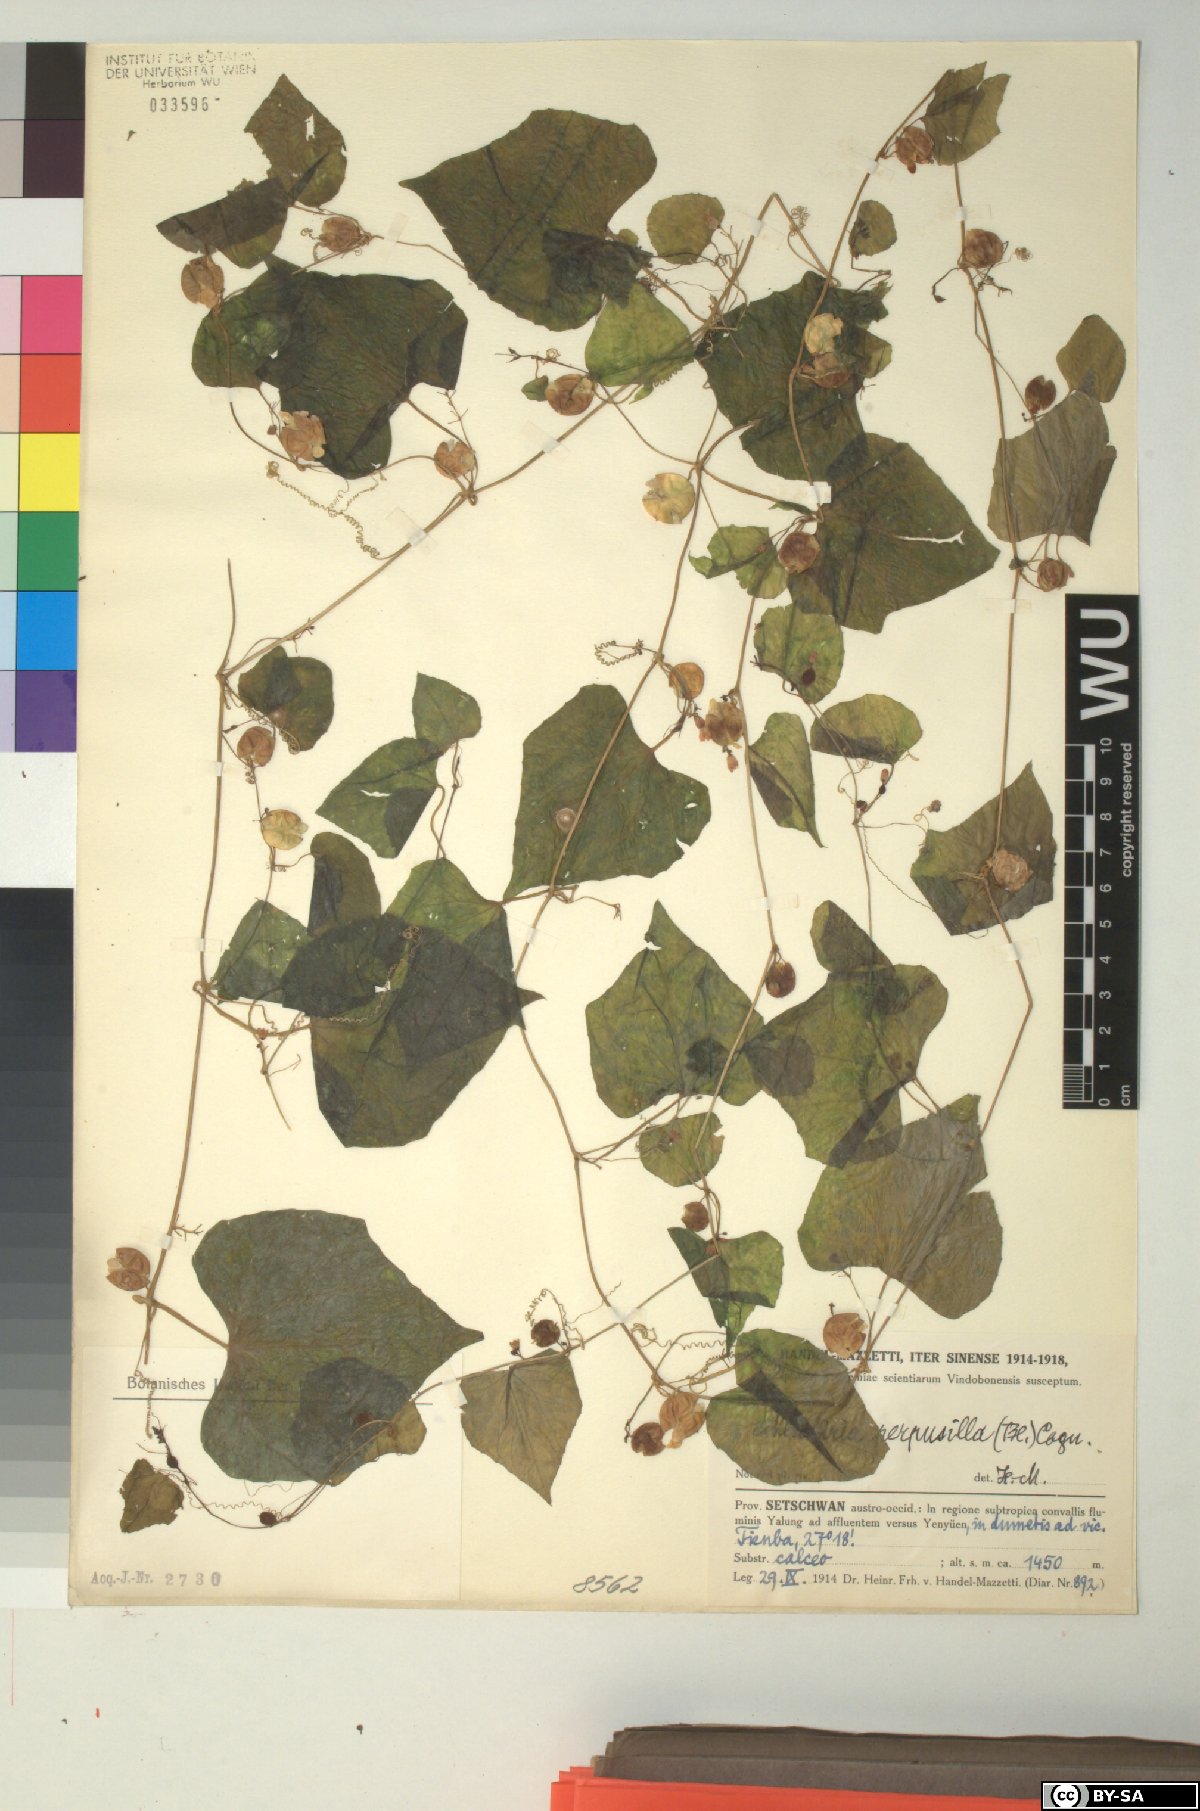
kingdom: Plantae
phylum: Tracheophyta
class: Magnoliopsida
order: Cucurbitales
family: Cucurbitaceae
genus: Zehneria
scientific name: Zehneria scabra
